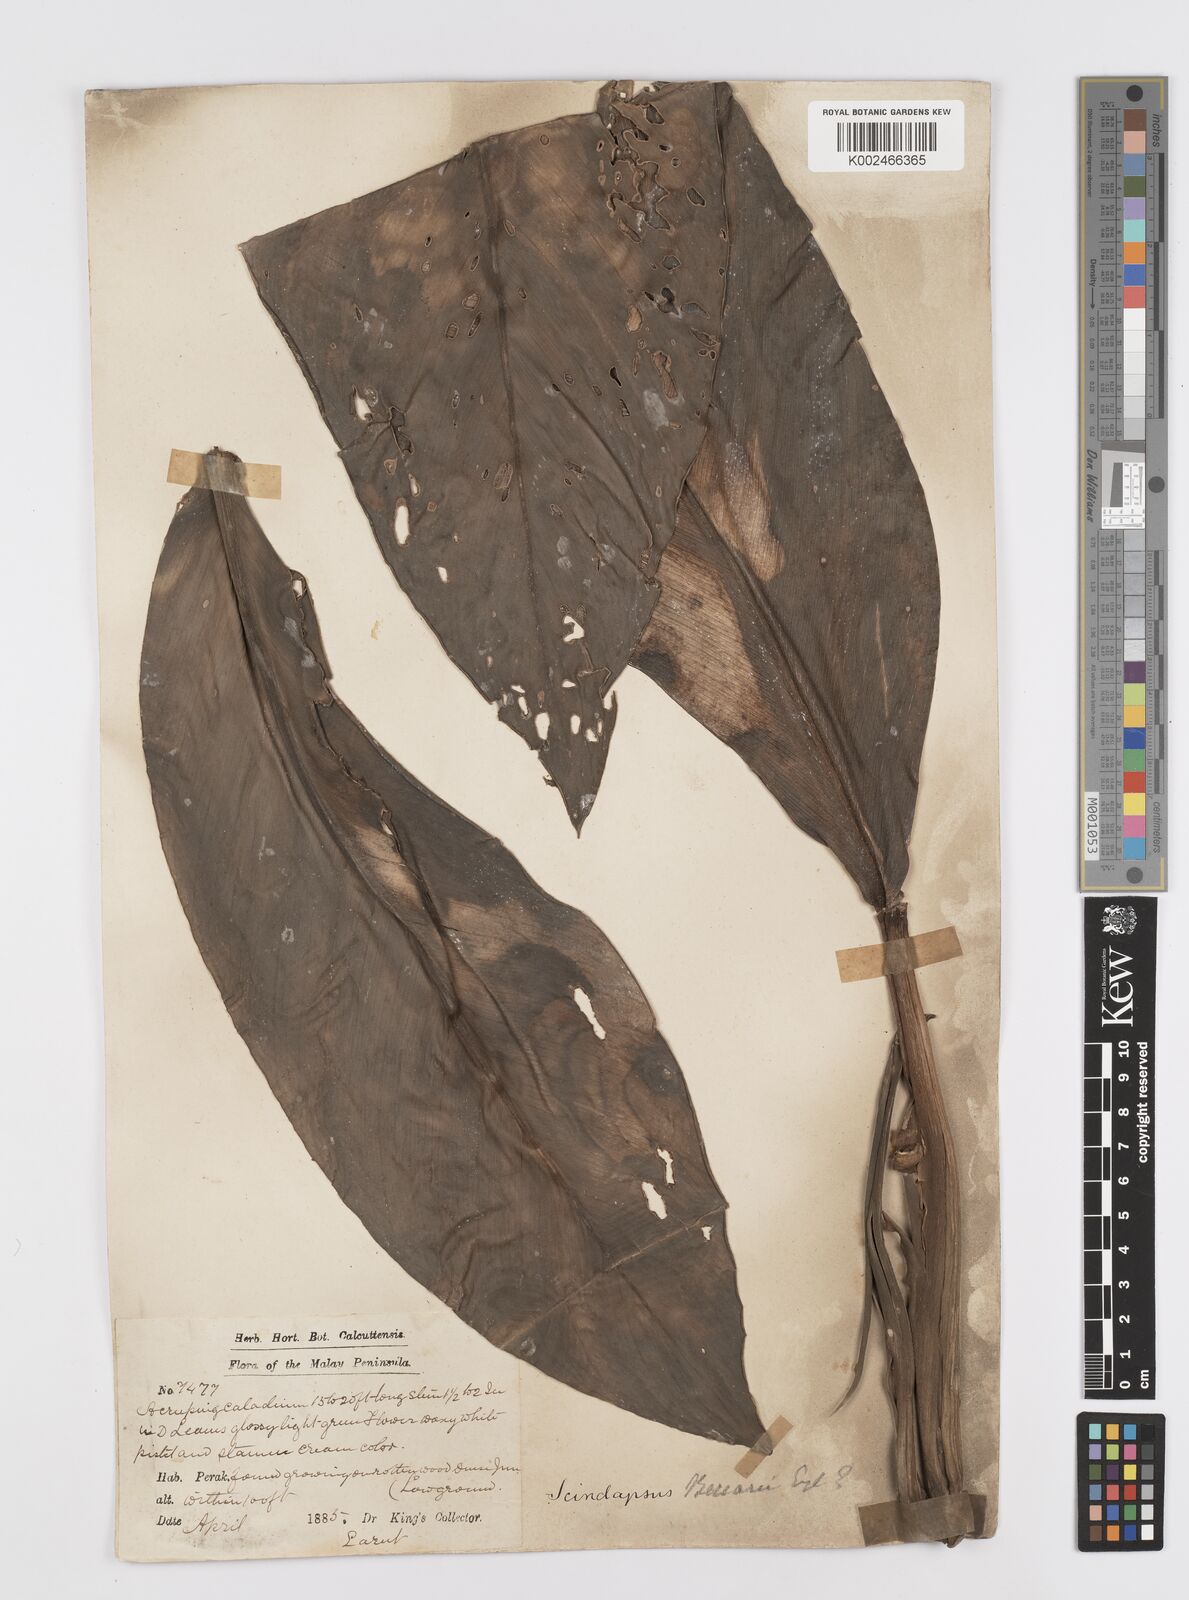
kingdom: Plantae
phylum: Tracheophyta
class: Liliopsida
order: Alismatales
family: Araceae
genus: Scindapsus
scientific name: Scindapsus beccarii
